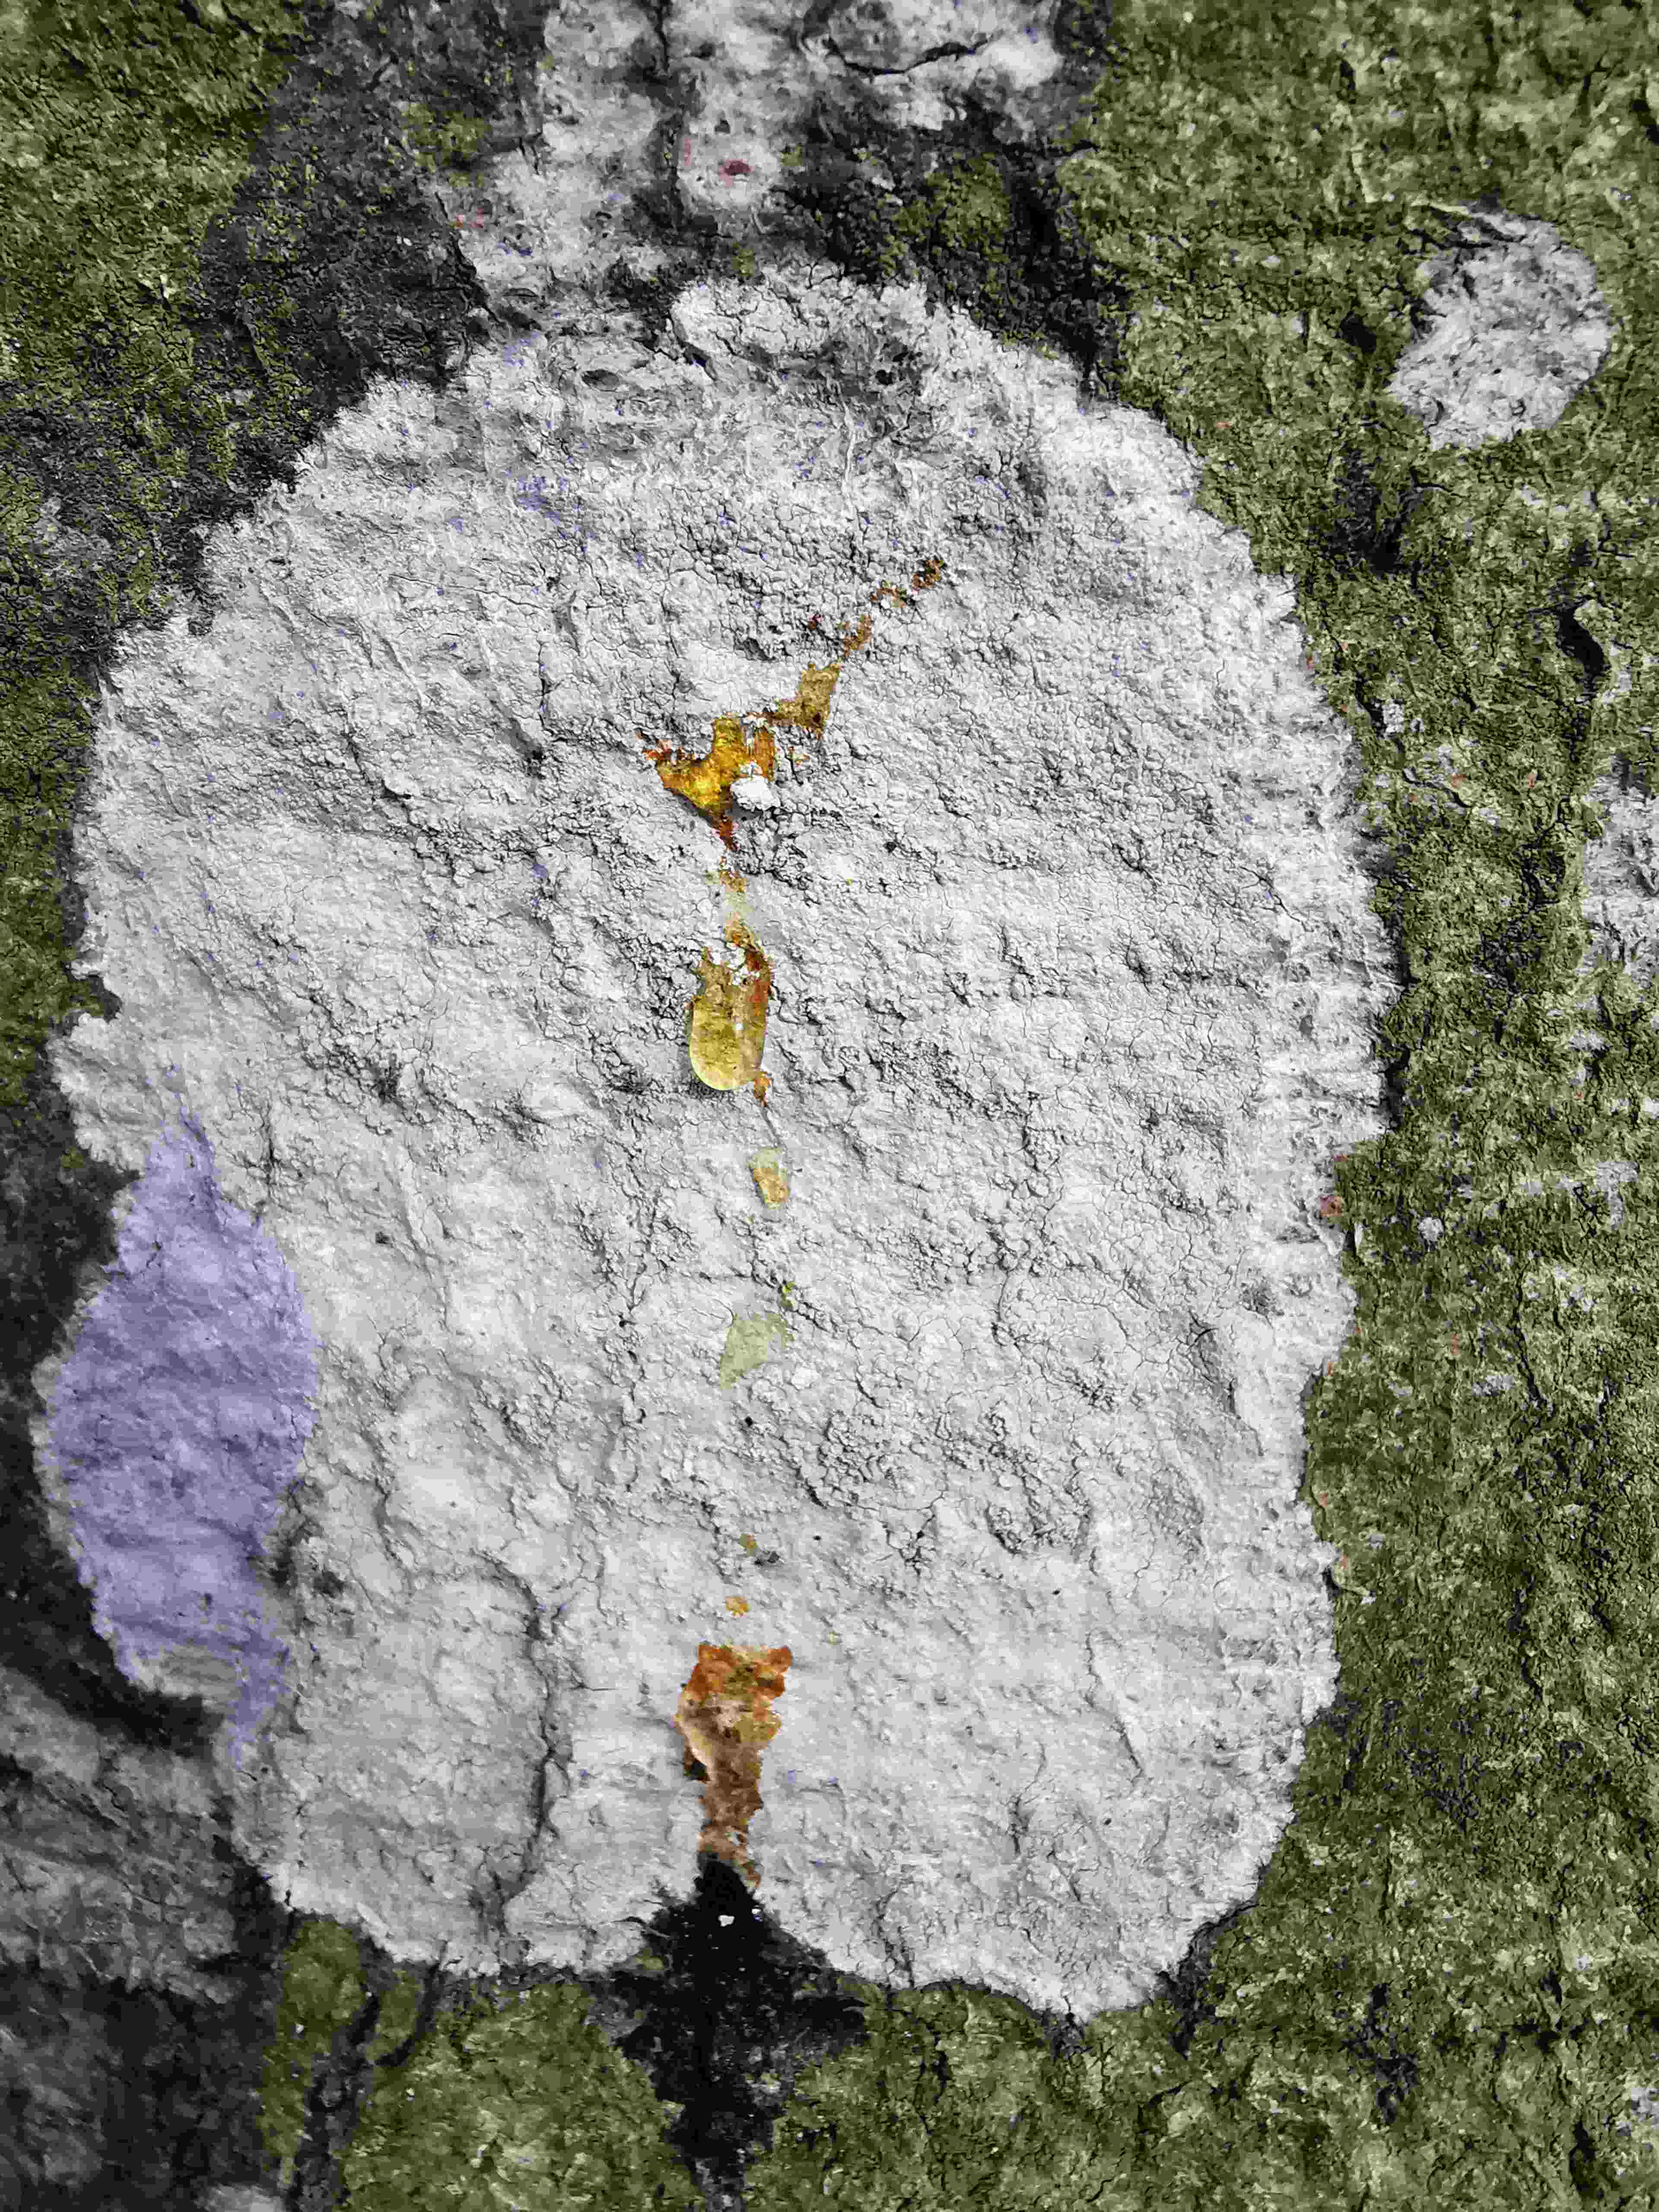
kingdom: Fungi
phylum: Ascomycota
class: Lecanoromycetes
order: Ostropales
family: Phlyctidaceae
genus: Phlyctis
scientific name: Phlyctis argena
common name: almindelig sølvlav
